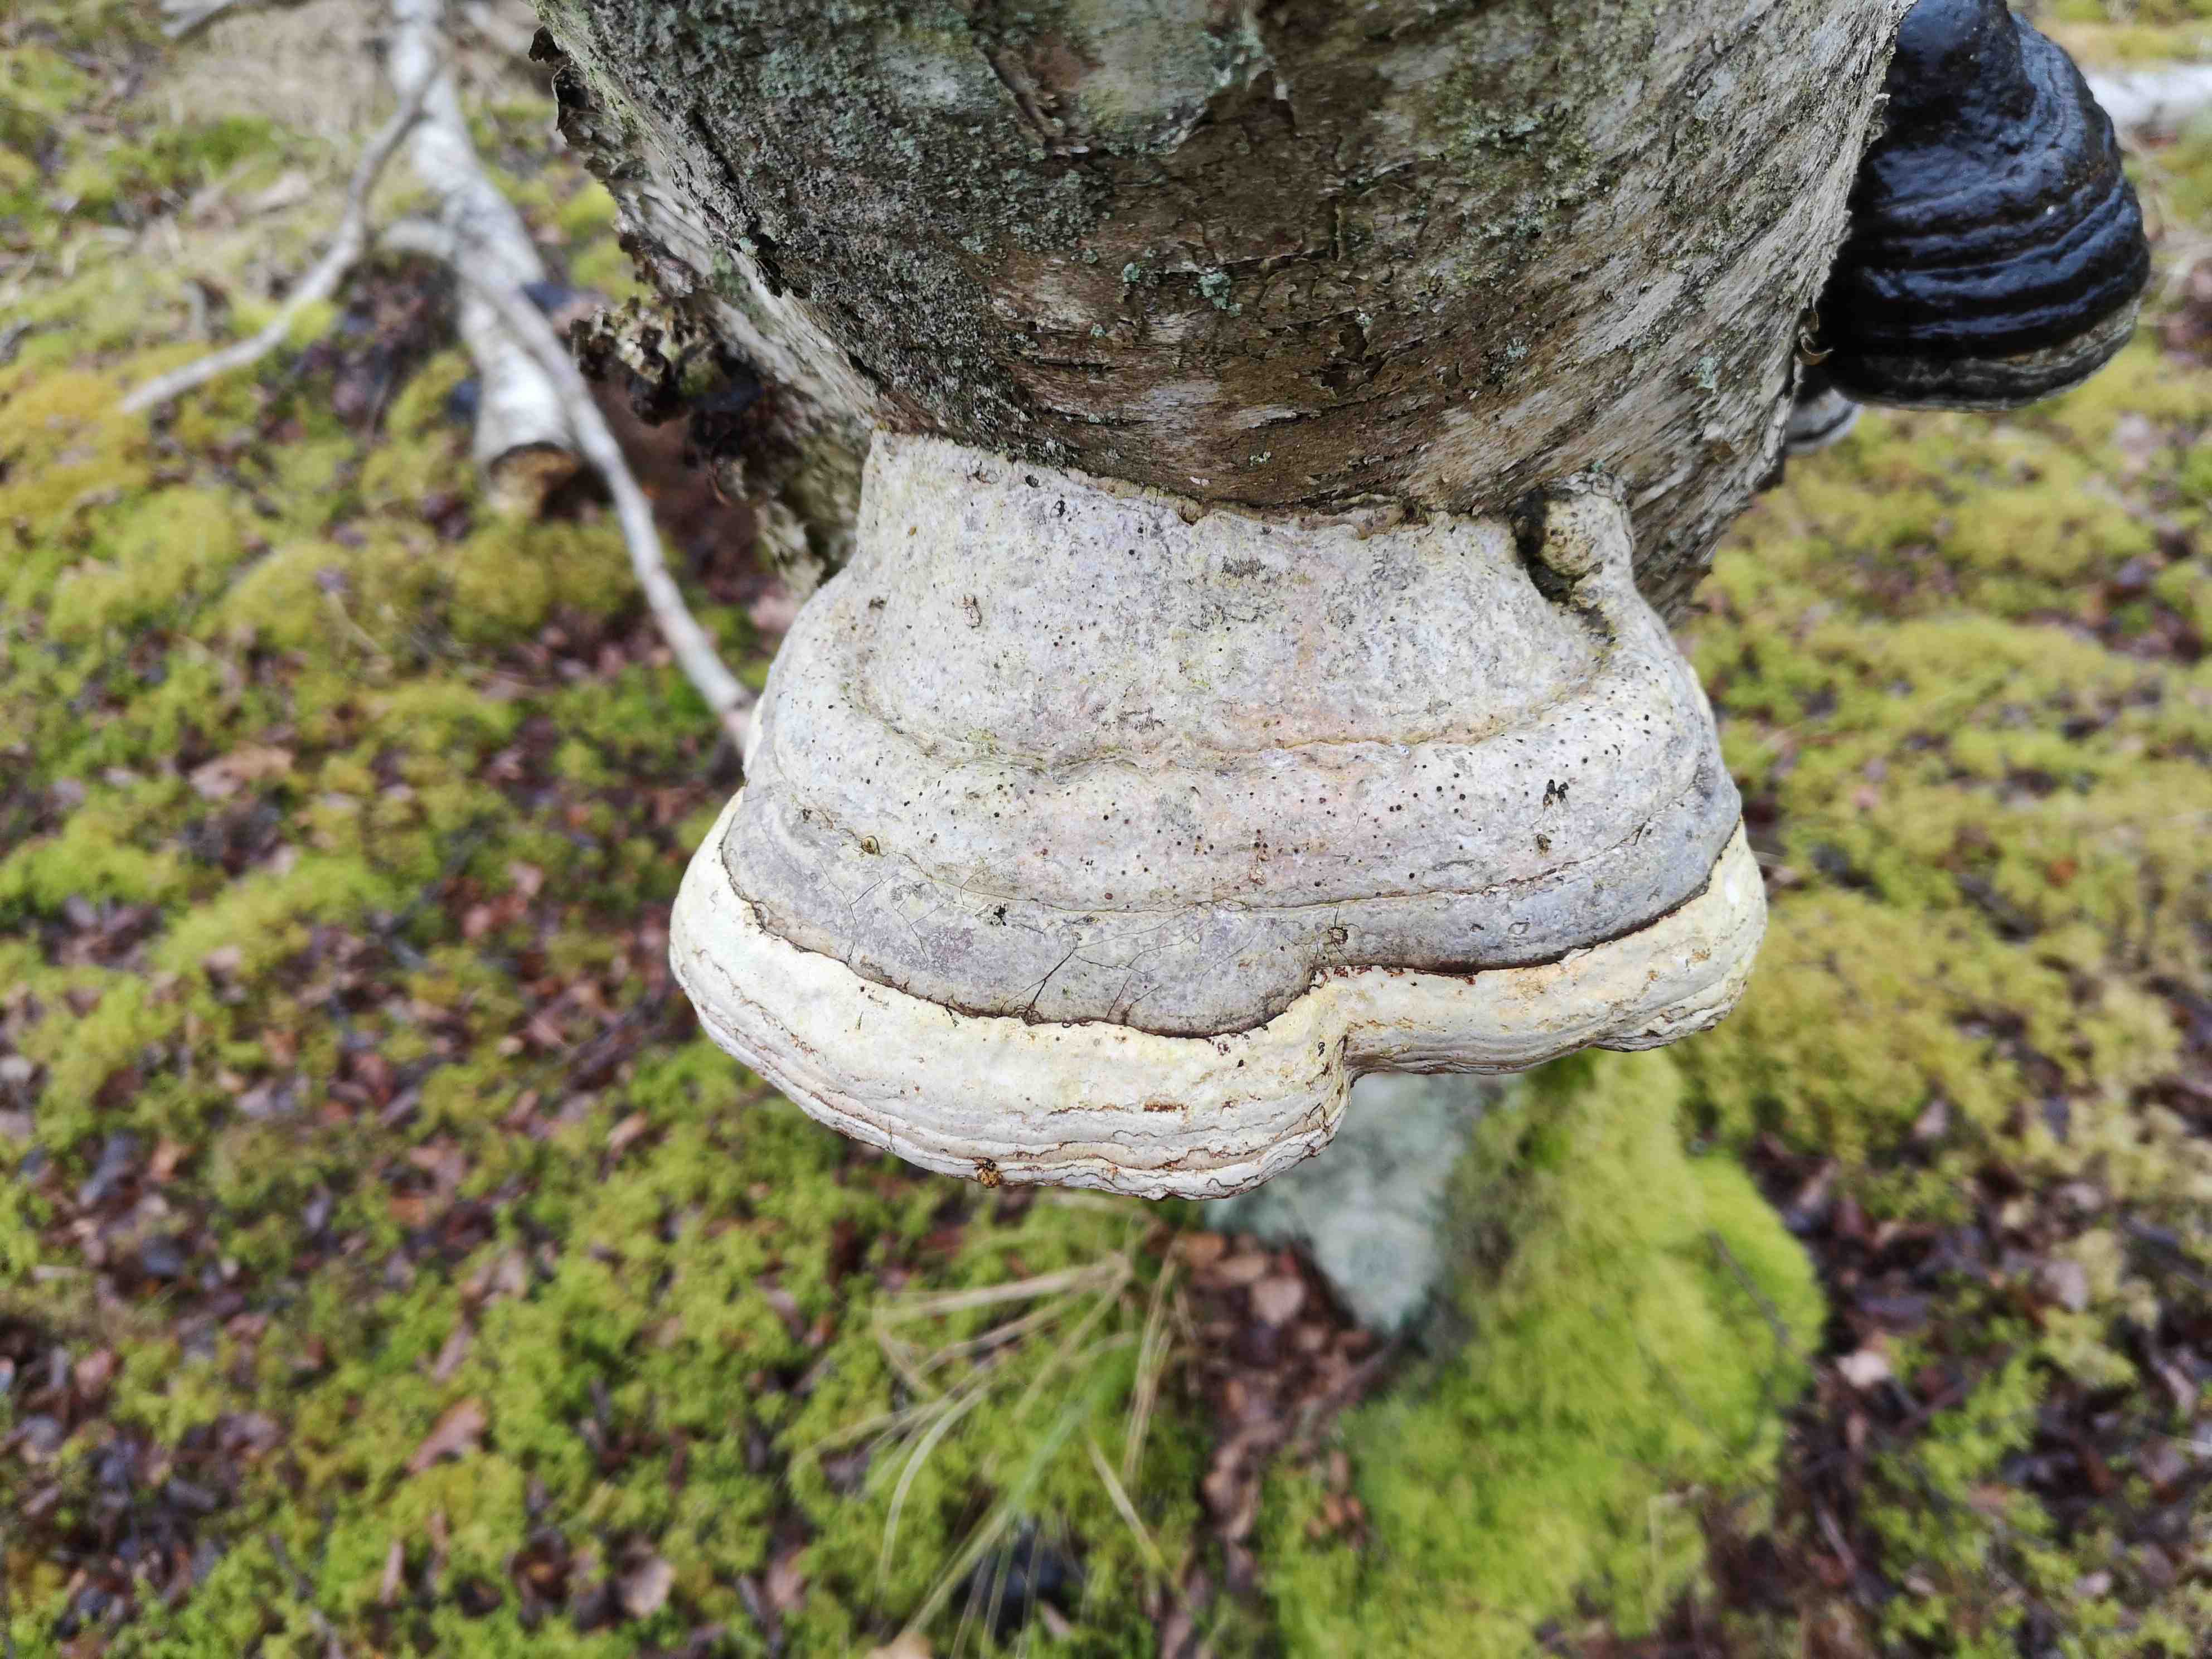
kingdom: Fungi
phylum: Basidiomycota
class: Agaricomycetes
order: Polyporales
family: Polyporaceae
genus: Fomes
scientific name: Fomes fomentarius
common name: tøndersvamp
